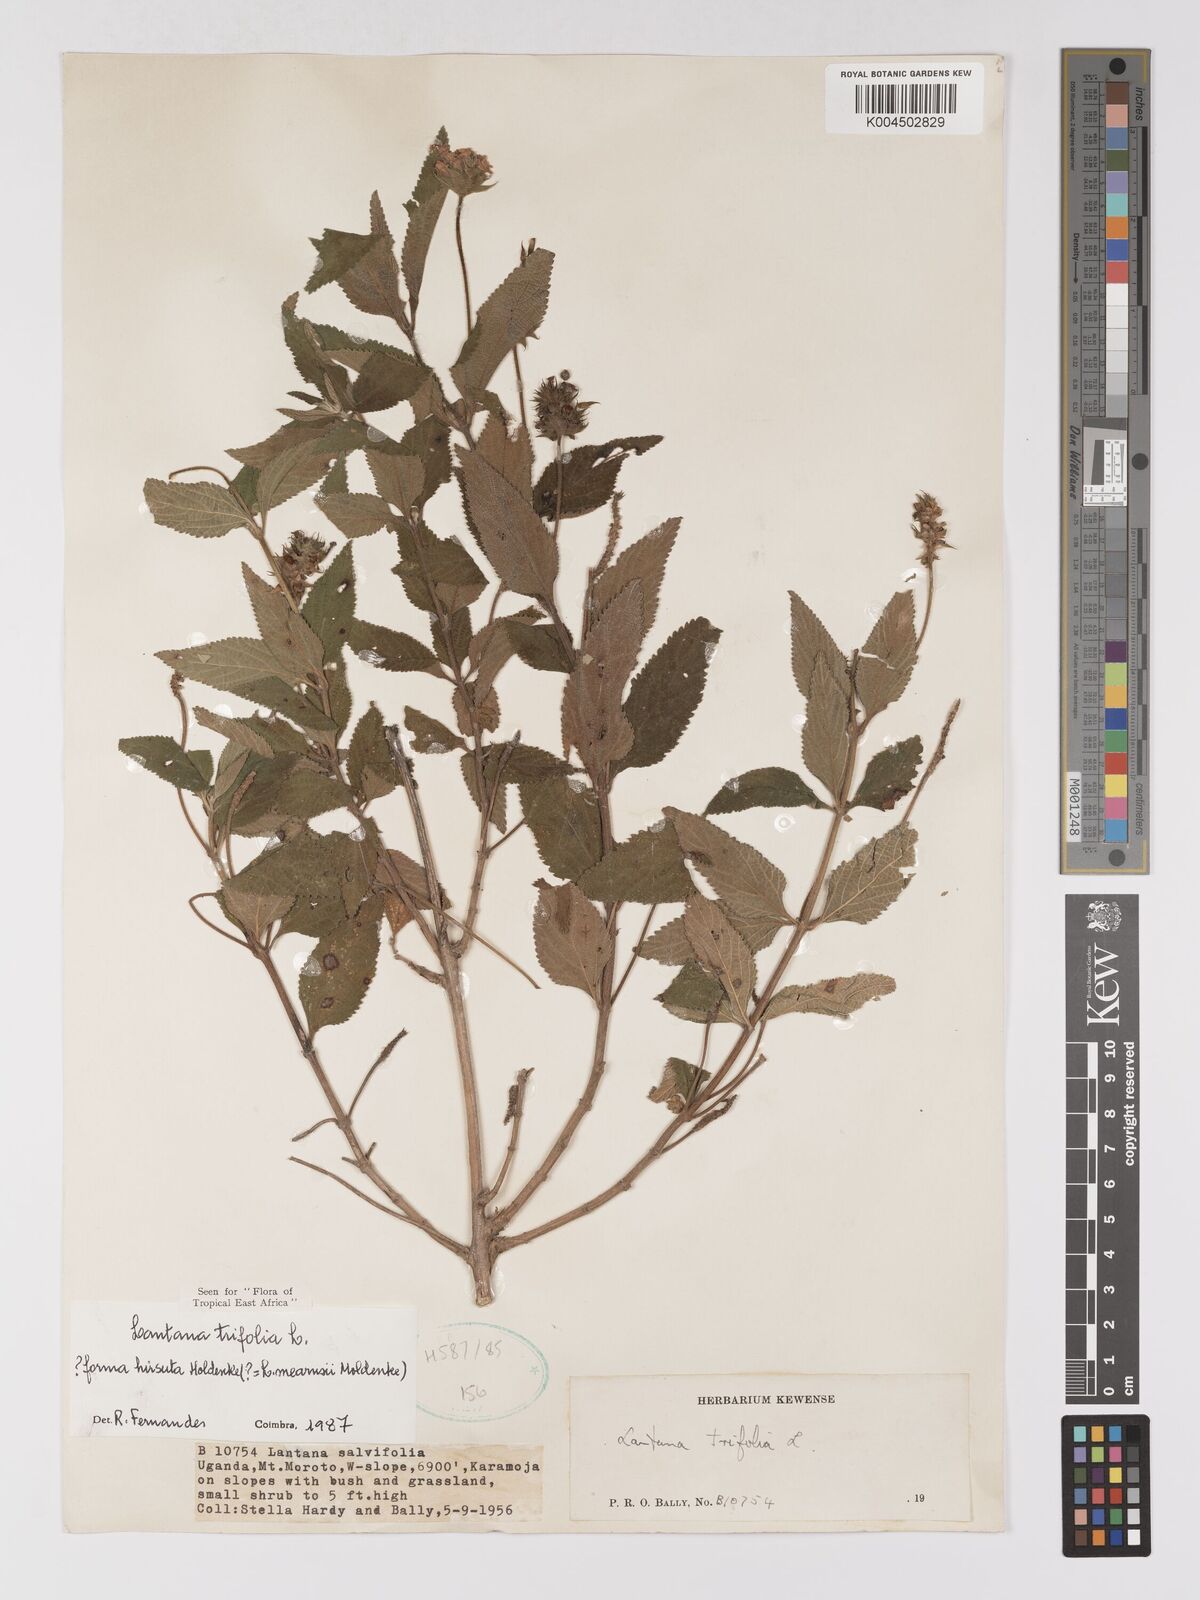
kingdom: Plantae
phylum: Tracheophyta
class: Magnoliopsida
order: Lamiales
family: Verbenaceae
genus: Lantana
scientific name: Lantana trifolia
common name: Sweet-sage
